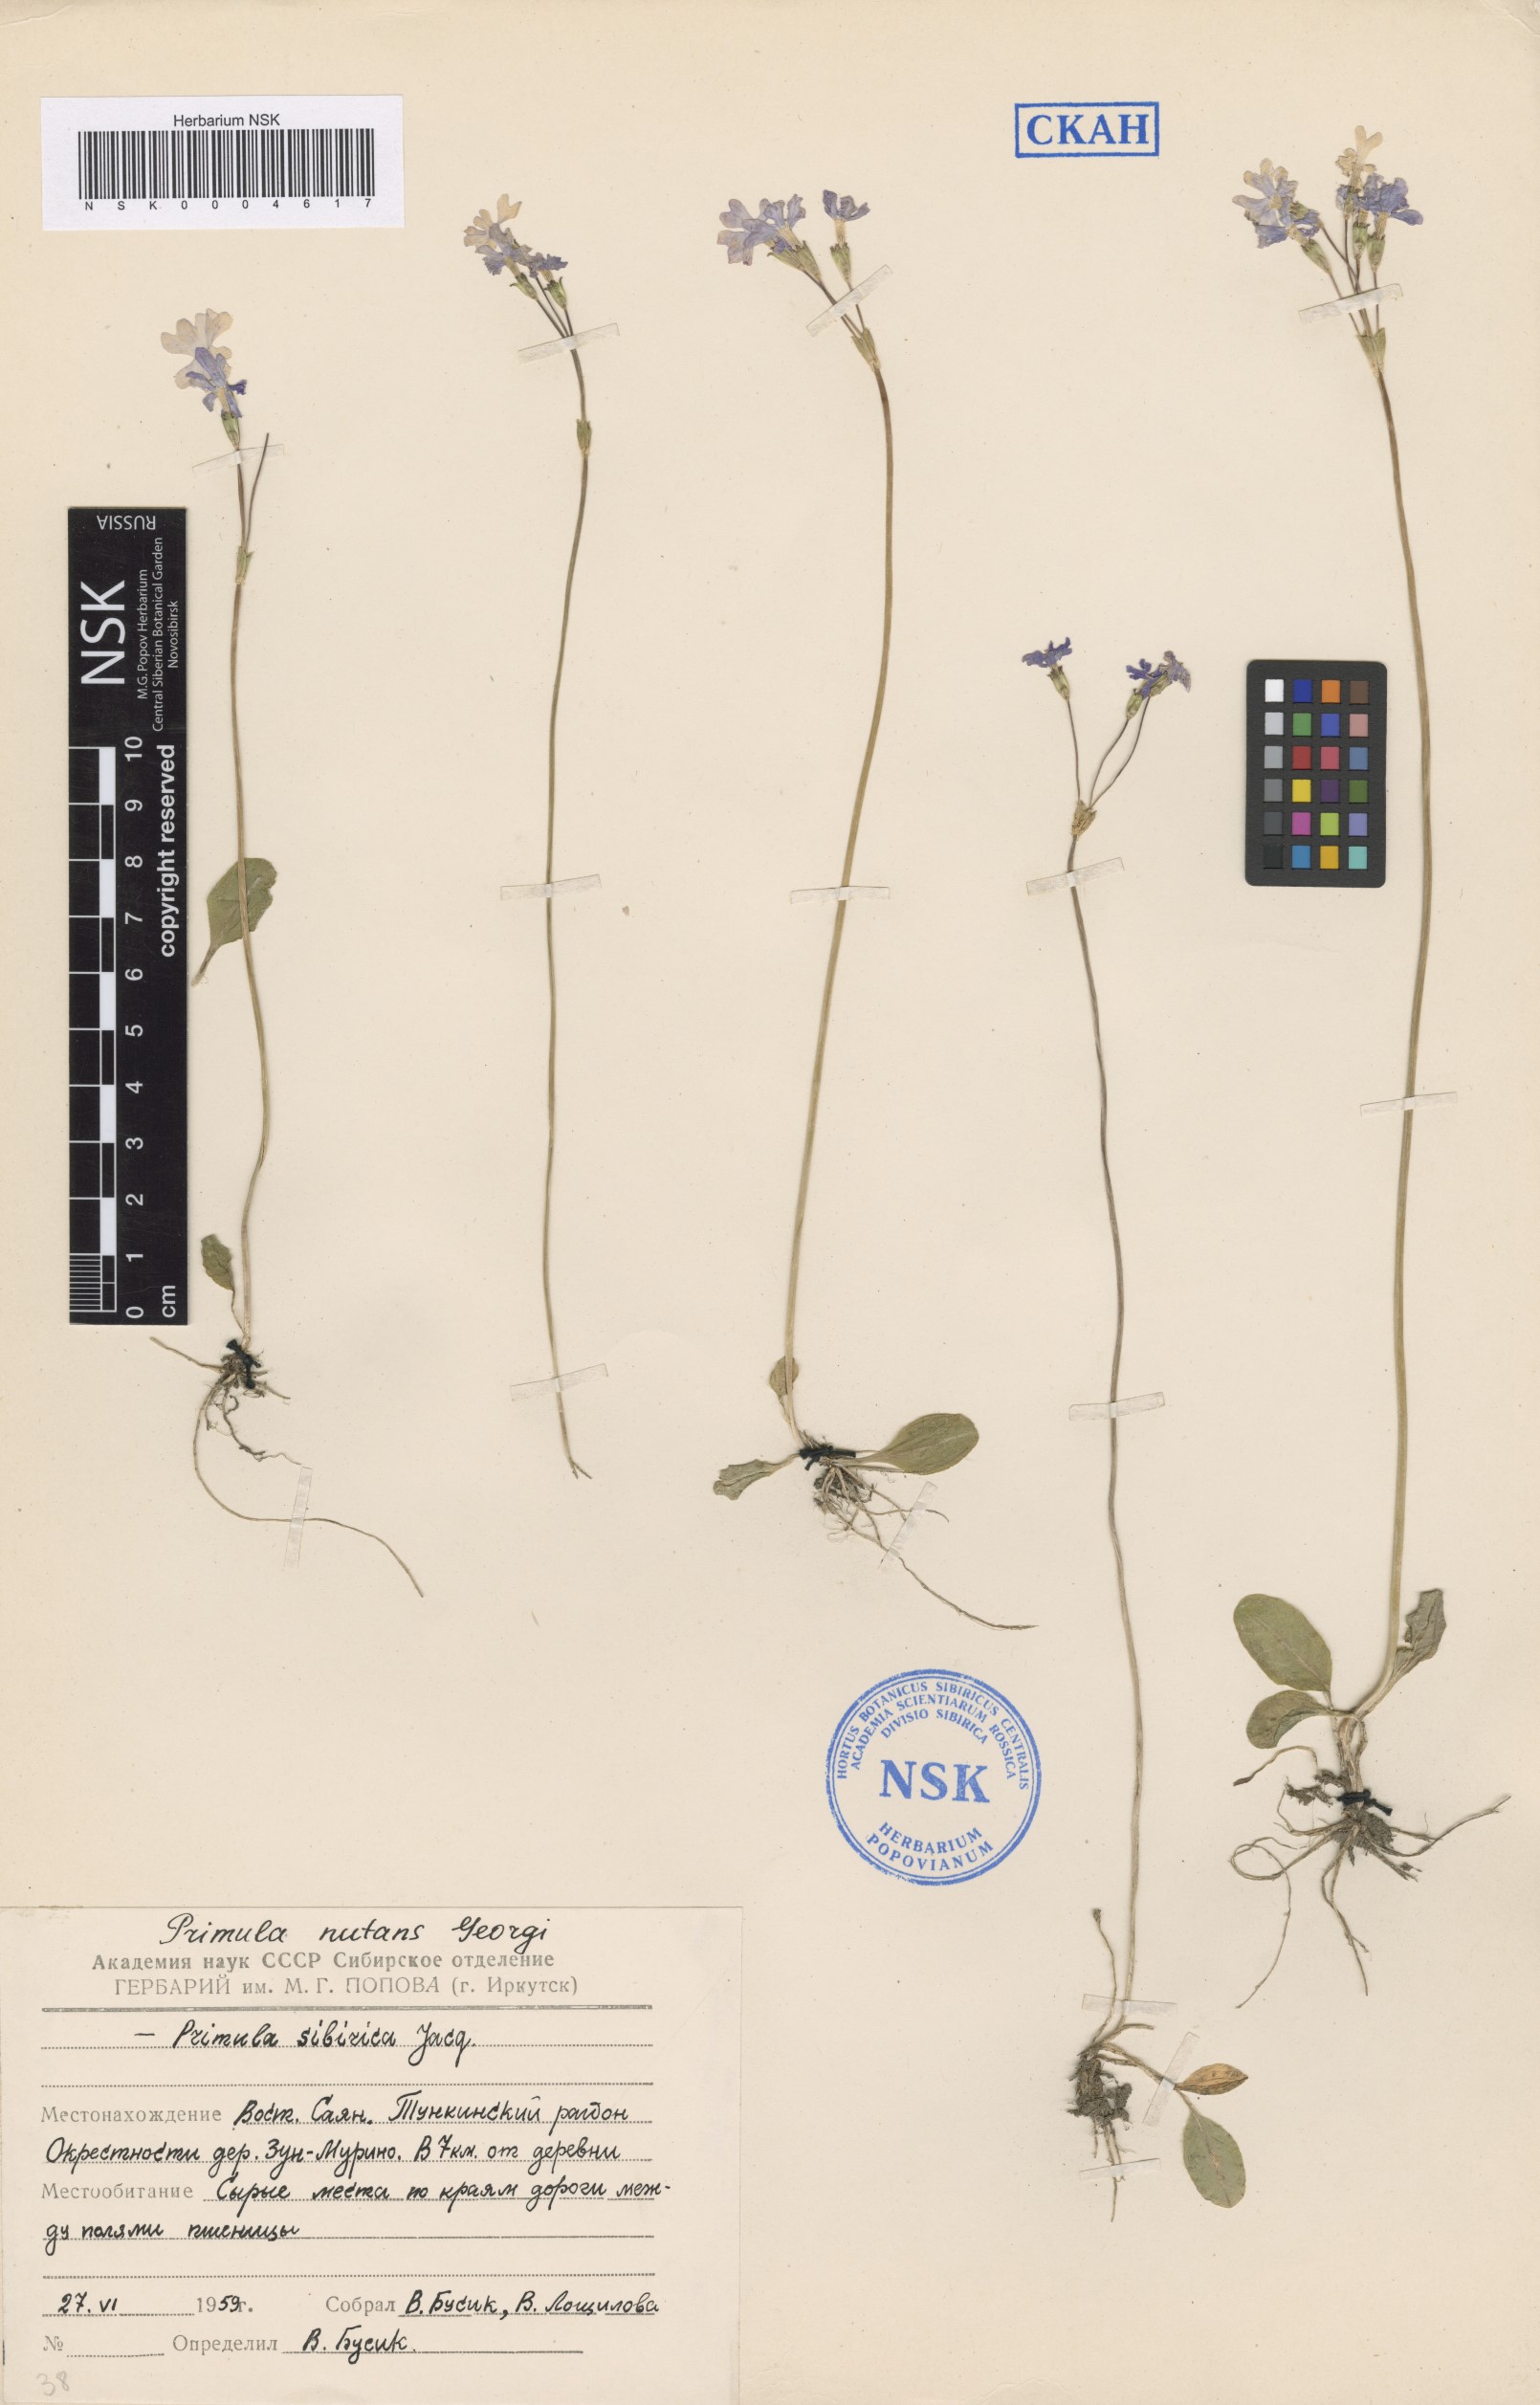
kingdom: Plantae
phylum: Tracheophyta
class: Magnoliopsida
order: Ericales
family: Primulaceae
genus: Primula
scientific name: Primula nutans
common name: Siberian primrose
